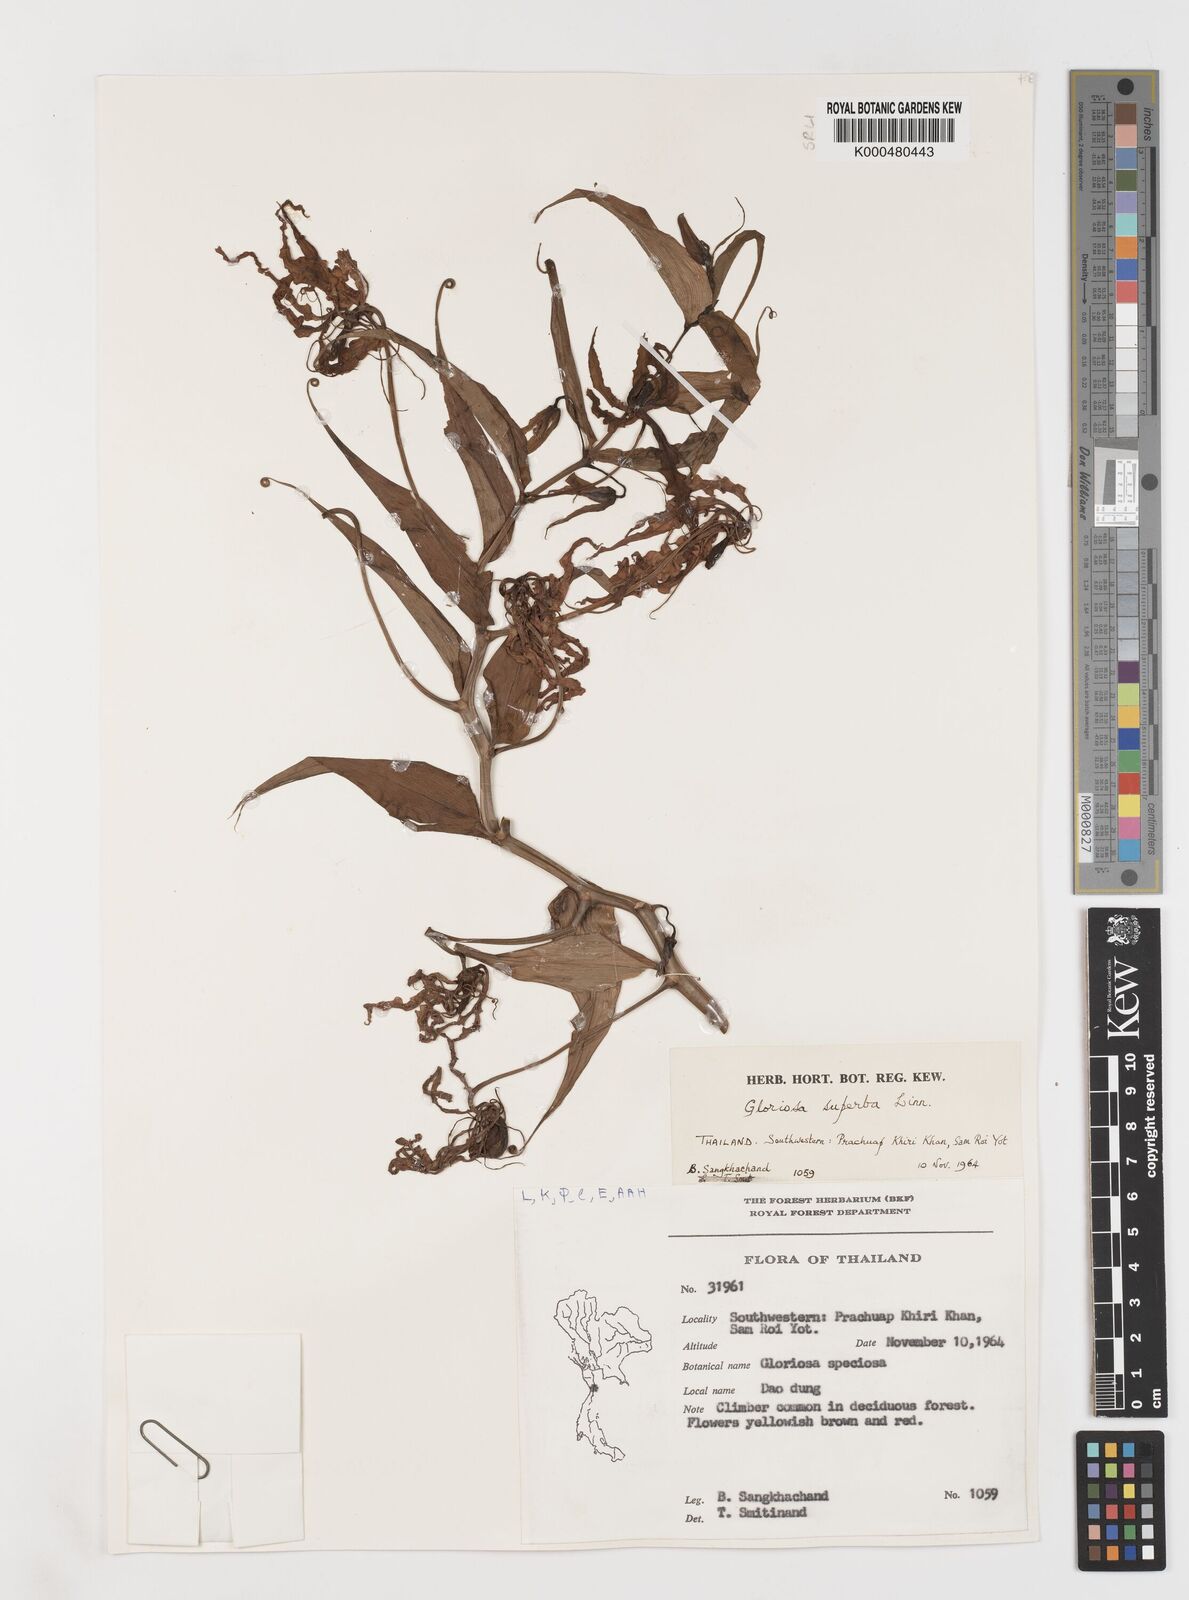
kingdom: Plantae
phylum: Tracheophyta
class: Liliopsida
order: Liliales
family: Colchicaceae
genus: Gloriosa
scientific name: Gloriosa superba
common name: Flame lily
